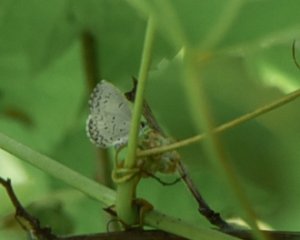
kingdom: Animalia
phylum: Arthropoda
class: Insecta
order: Lepidoptera
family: Lycaenidae
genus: Cyaniris
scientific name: Cyaniris neglecta
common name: Summer Azure
